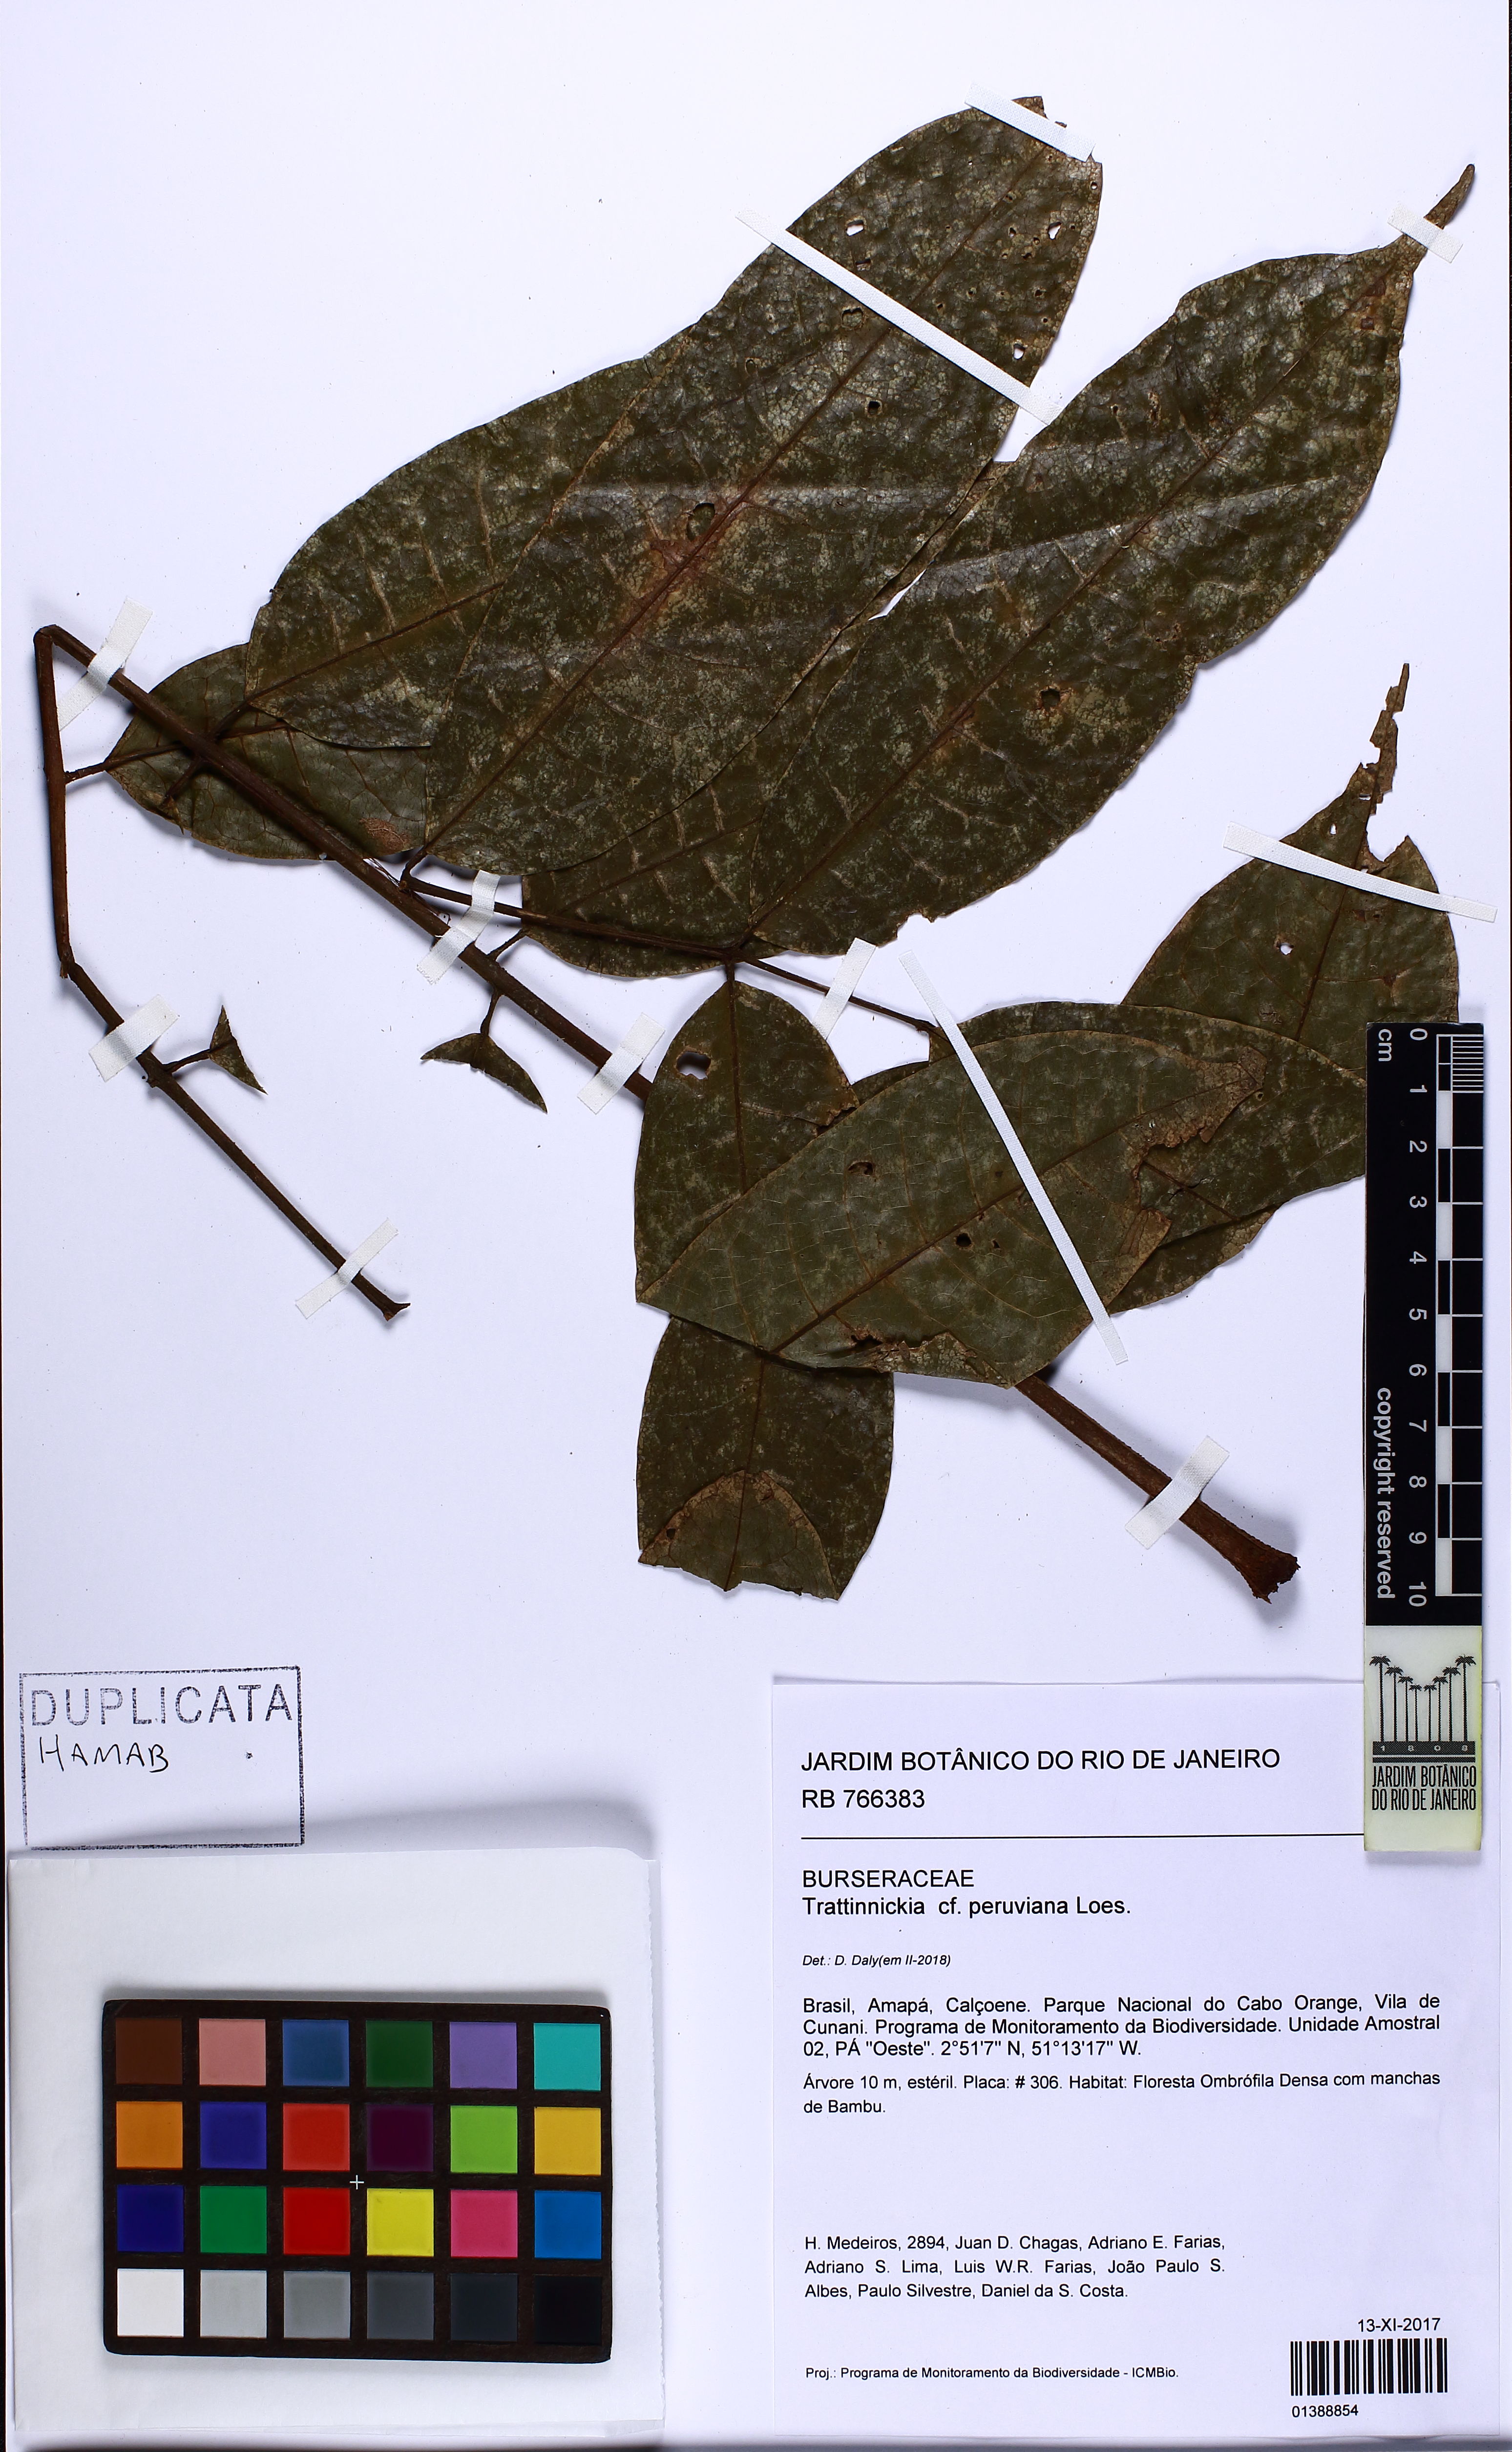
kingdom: Plantae
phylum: Tracheophyta
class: Magnoliopsida
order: Sapindales
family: Burseraceae
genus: Trattinnickia
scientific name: Trattinnickia peruviana
